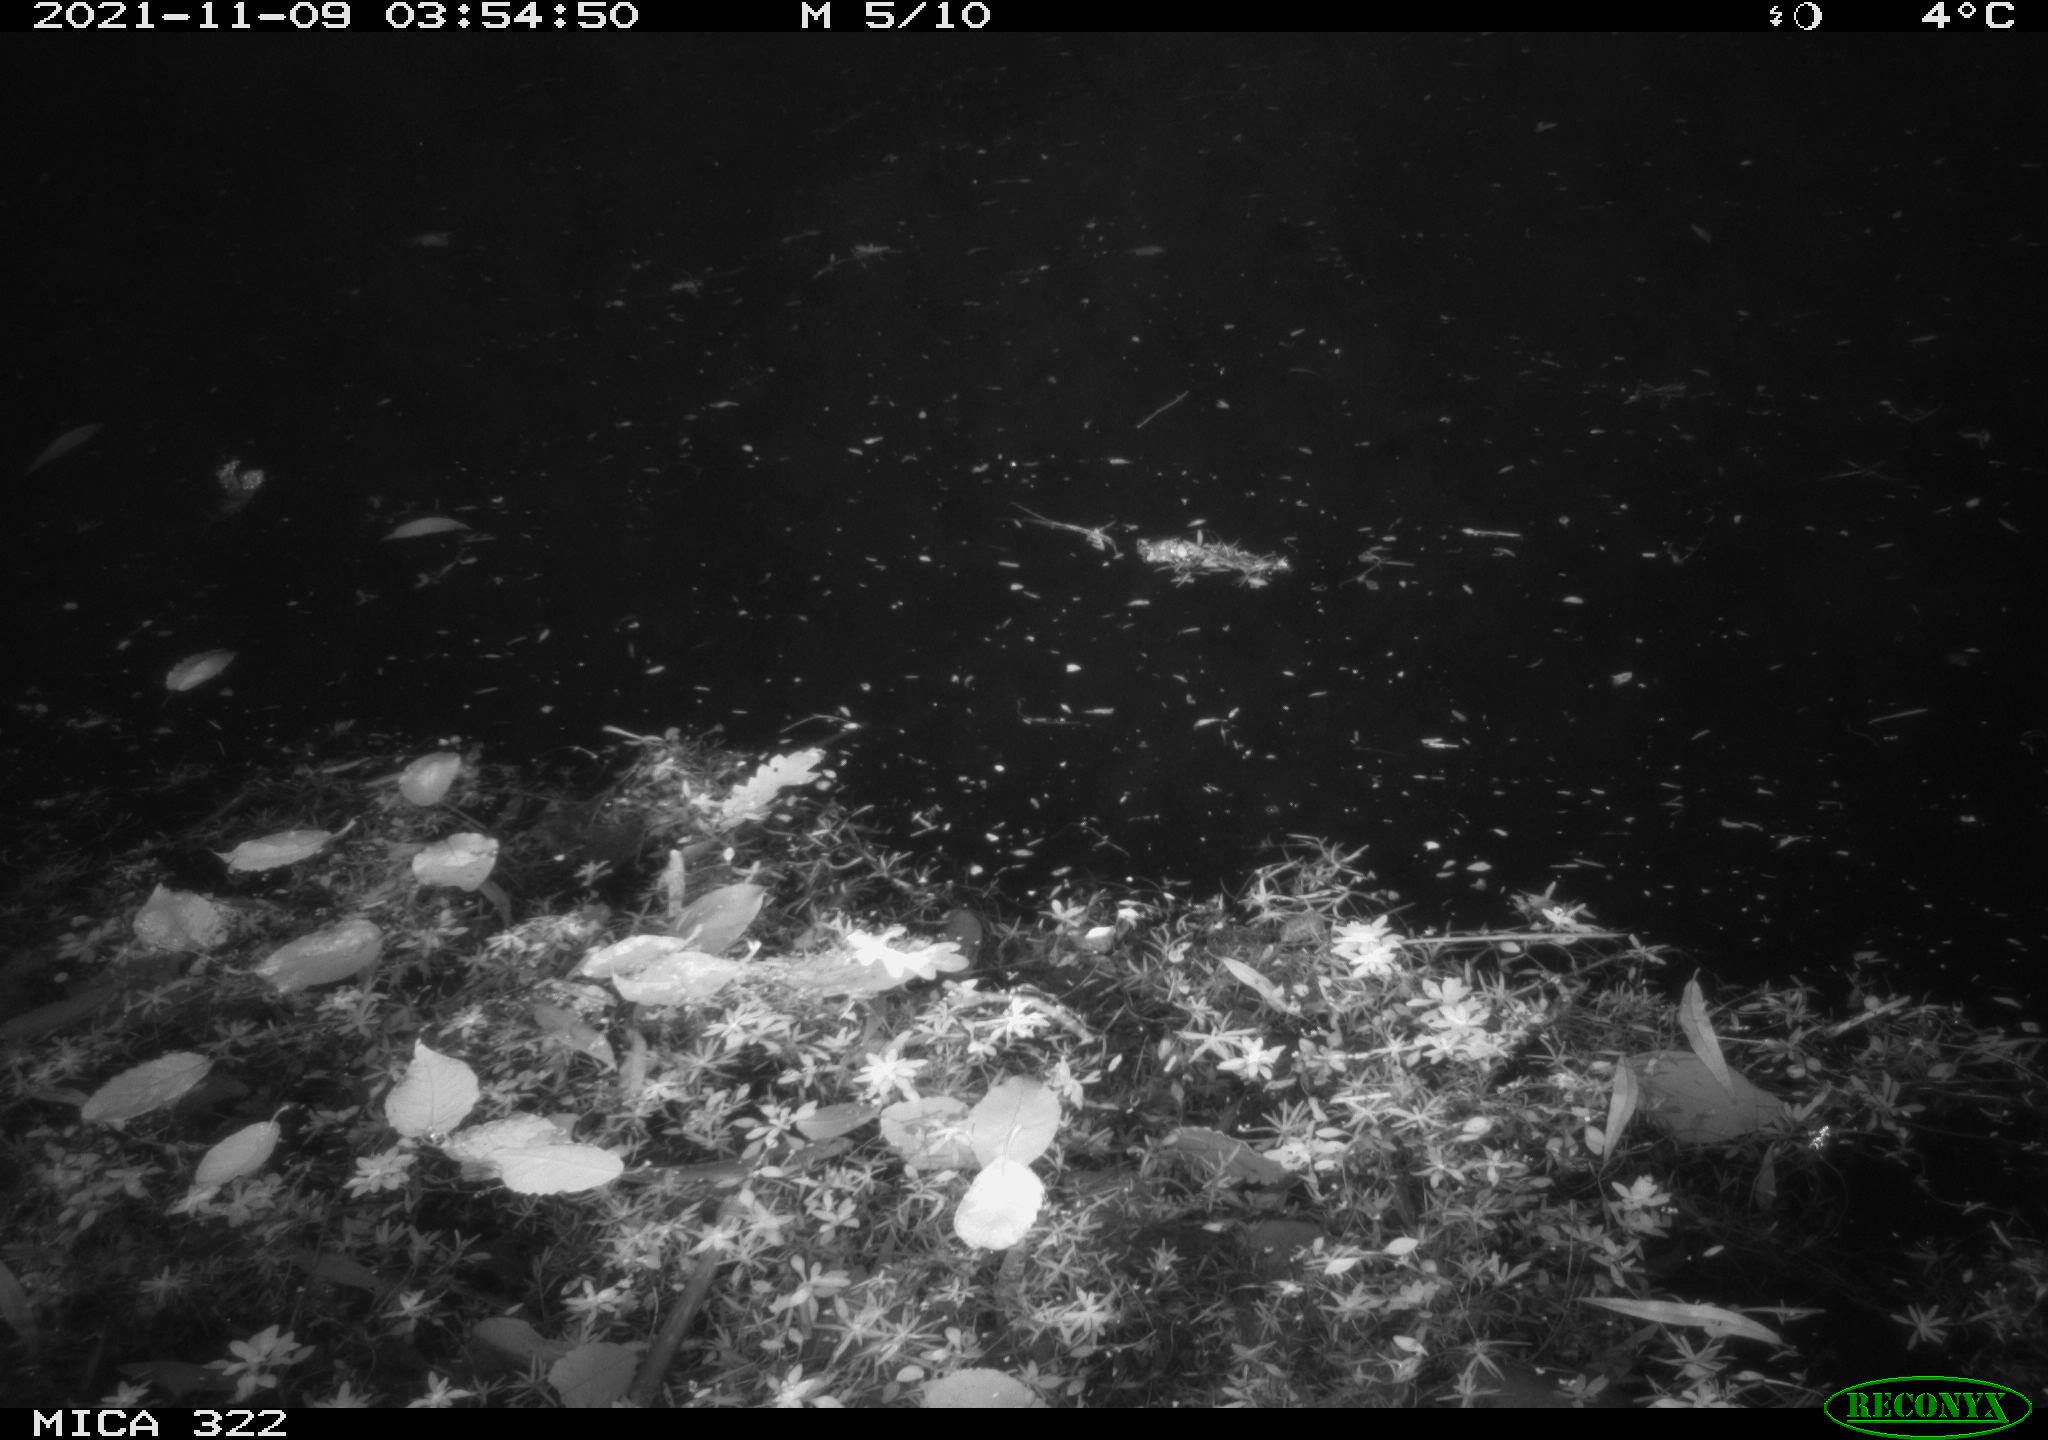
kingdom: Animalia
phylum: Chordata
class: Mammalia
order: Rodentia
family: Muridae
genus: Rattus
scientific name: Rattus norvegicus
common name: Brown rat
